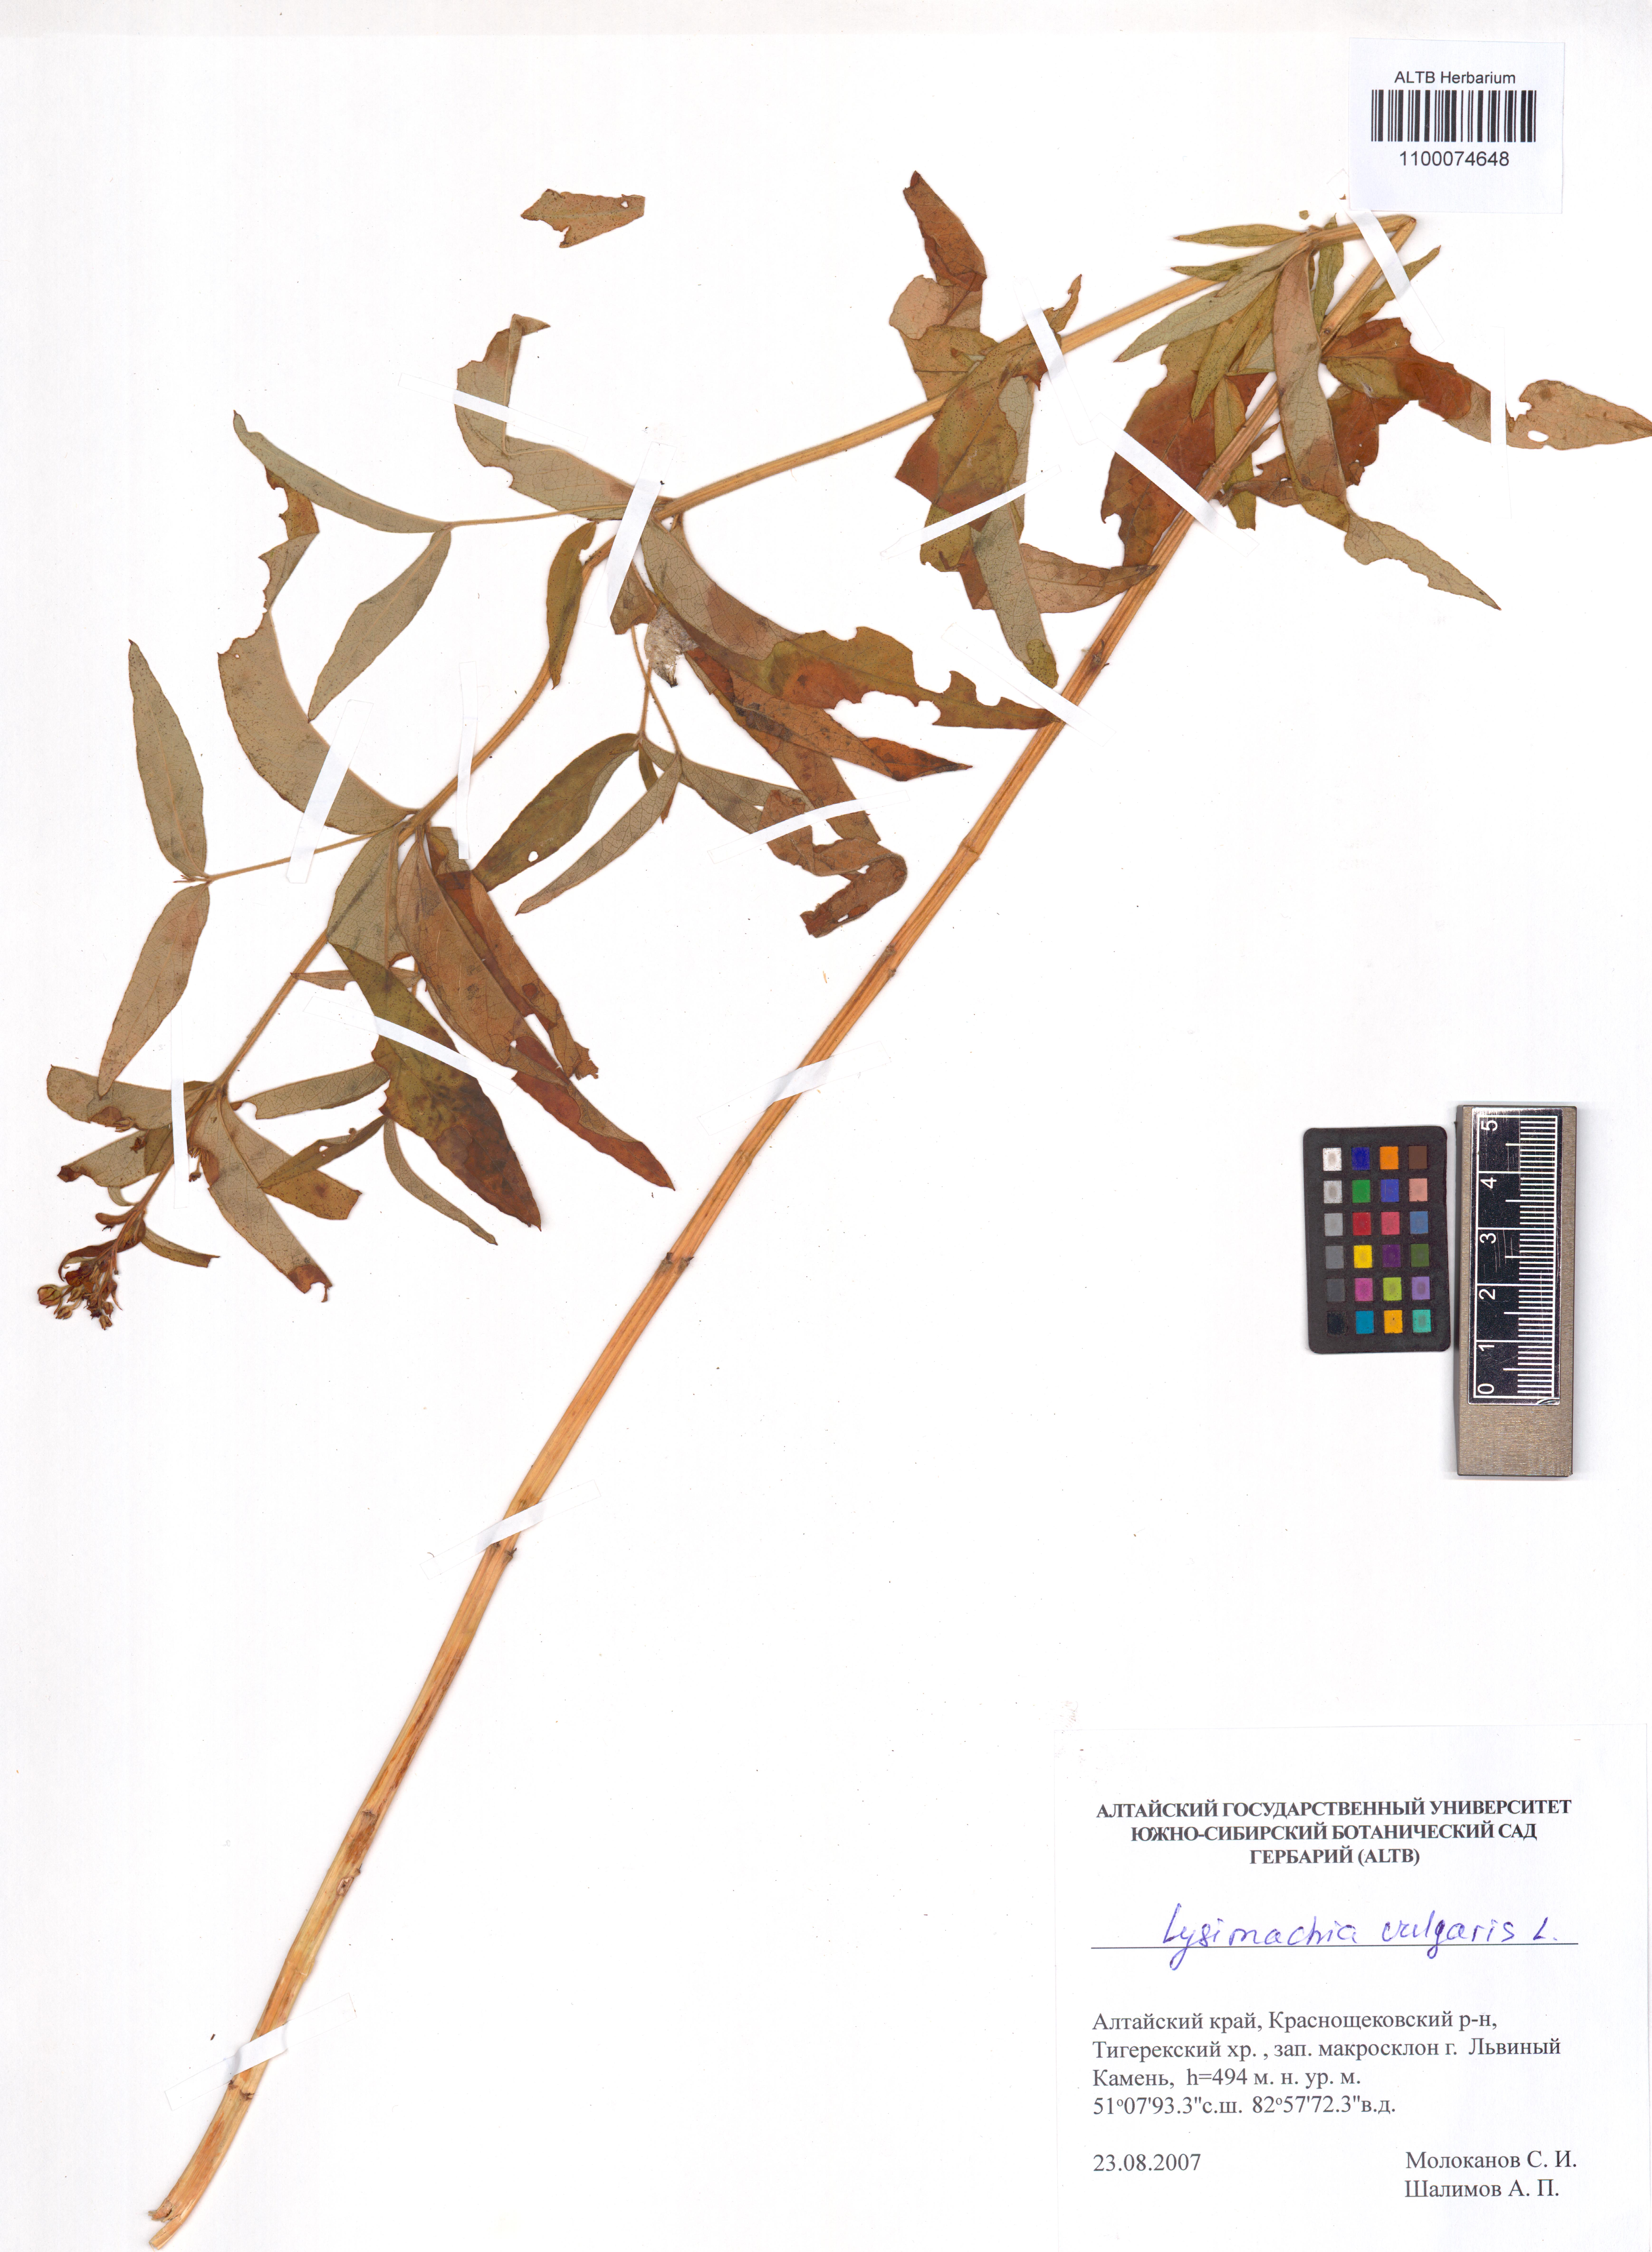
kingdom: Plantae
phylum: Tracheophyta
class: Magnoliopsida
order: Ericales
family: Primulaceae
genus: Lysimachia
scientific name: Lysimachia vulgaris
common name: Yellow loosestrife
